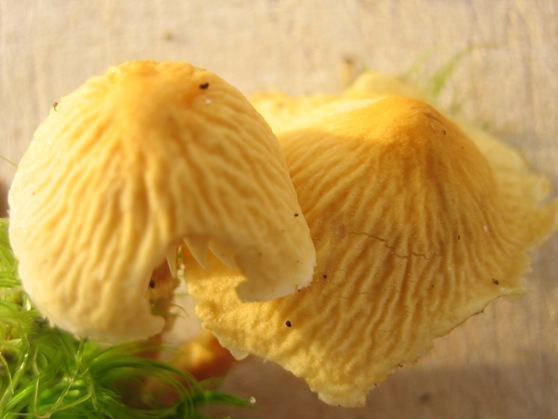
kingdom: Fungi
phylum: Basidiomycota
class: Agaricomycetes
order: Agaricales
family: Tricholomataceae
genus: Cystoderma
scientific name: Cystoderma amianthinum
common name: okkergul grynhat
